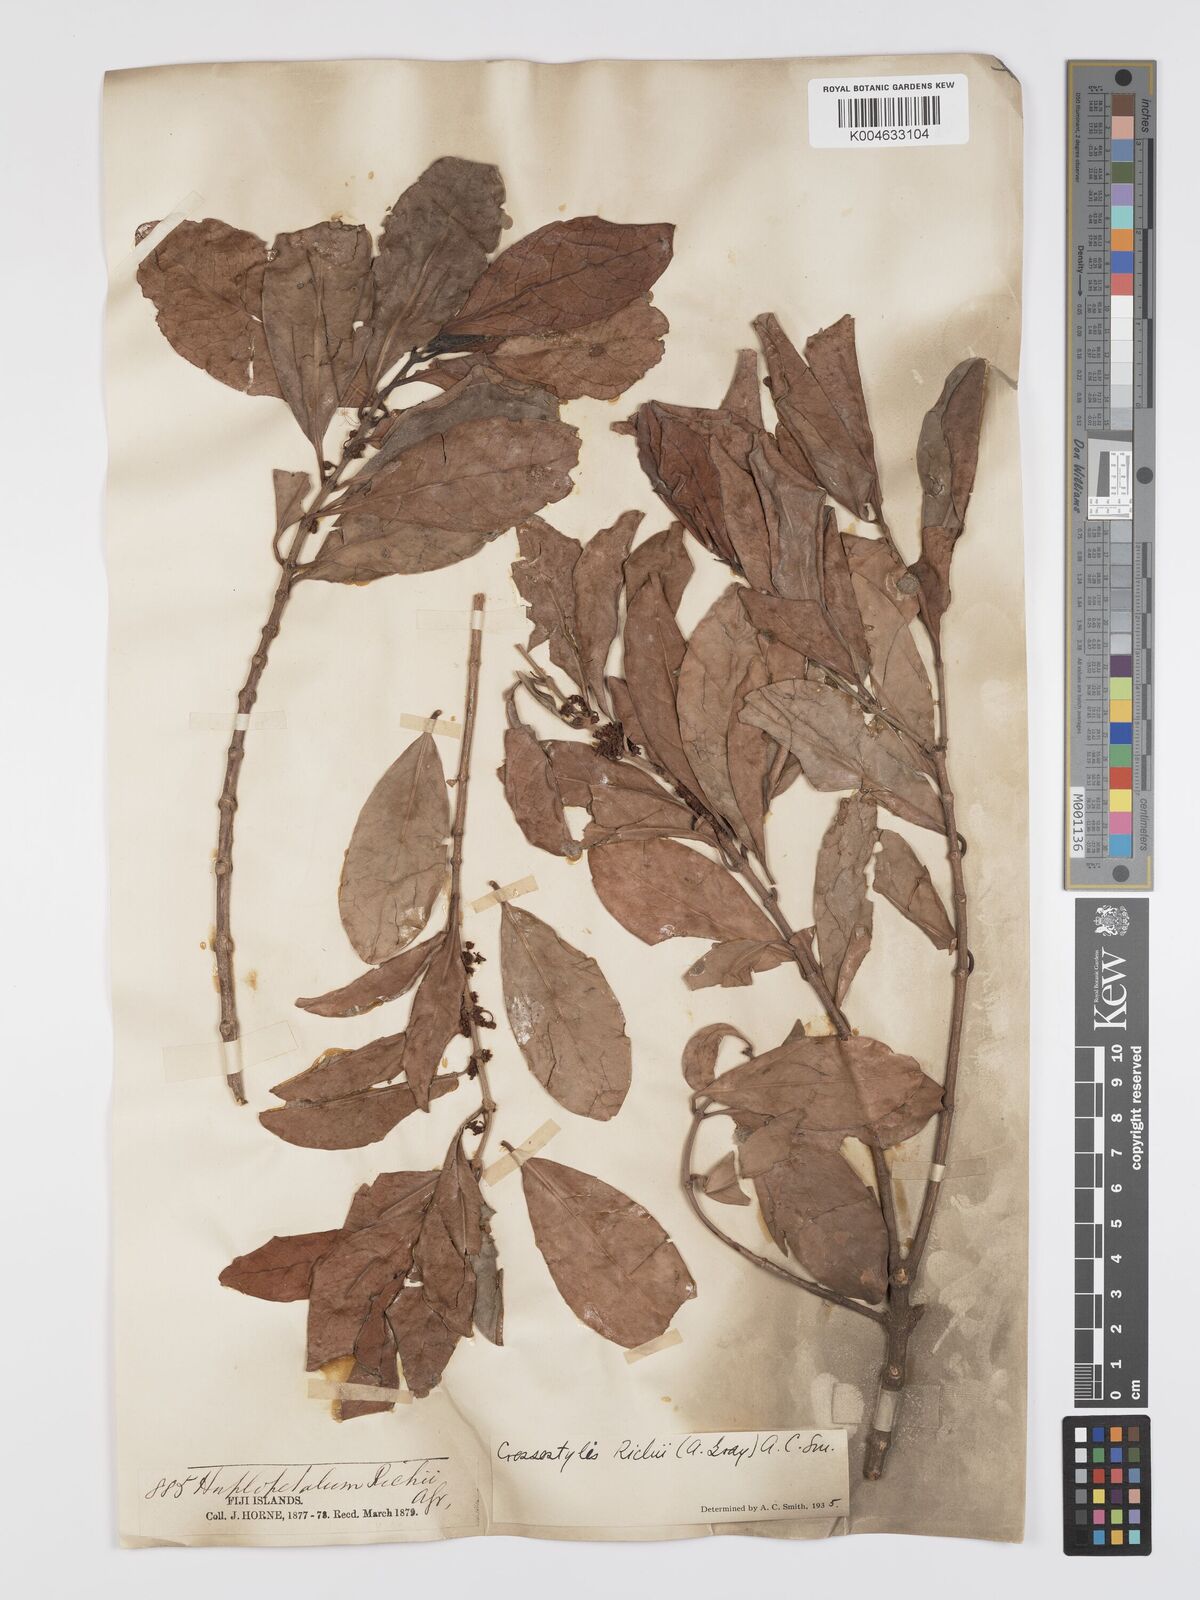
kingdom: Plantae
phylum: Tracheophyta
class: Magnoliopsida
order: Malpighiales
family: Rhizophoraceae
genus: Crossostylis
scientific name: Crossostylis richii
